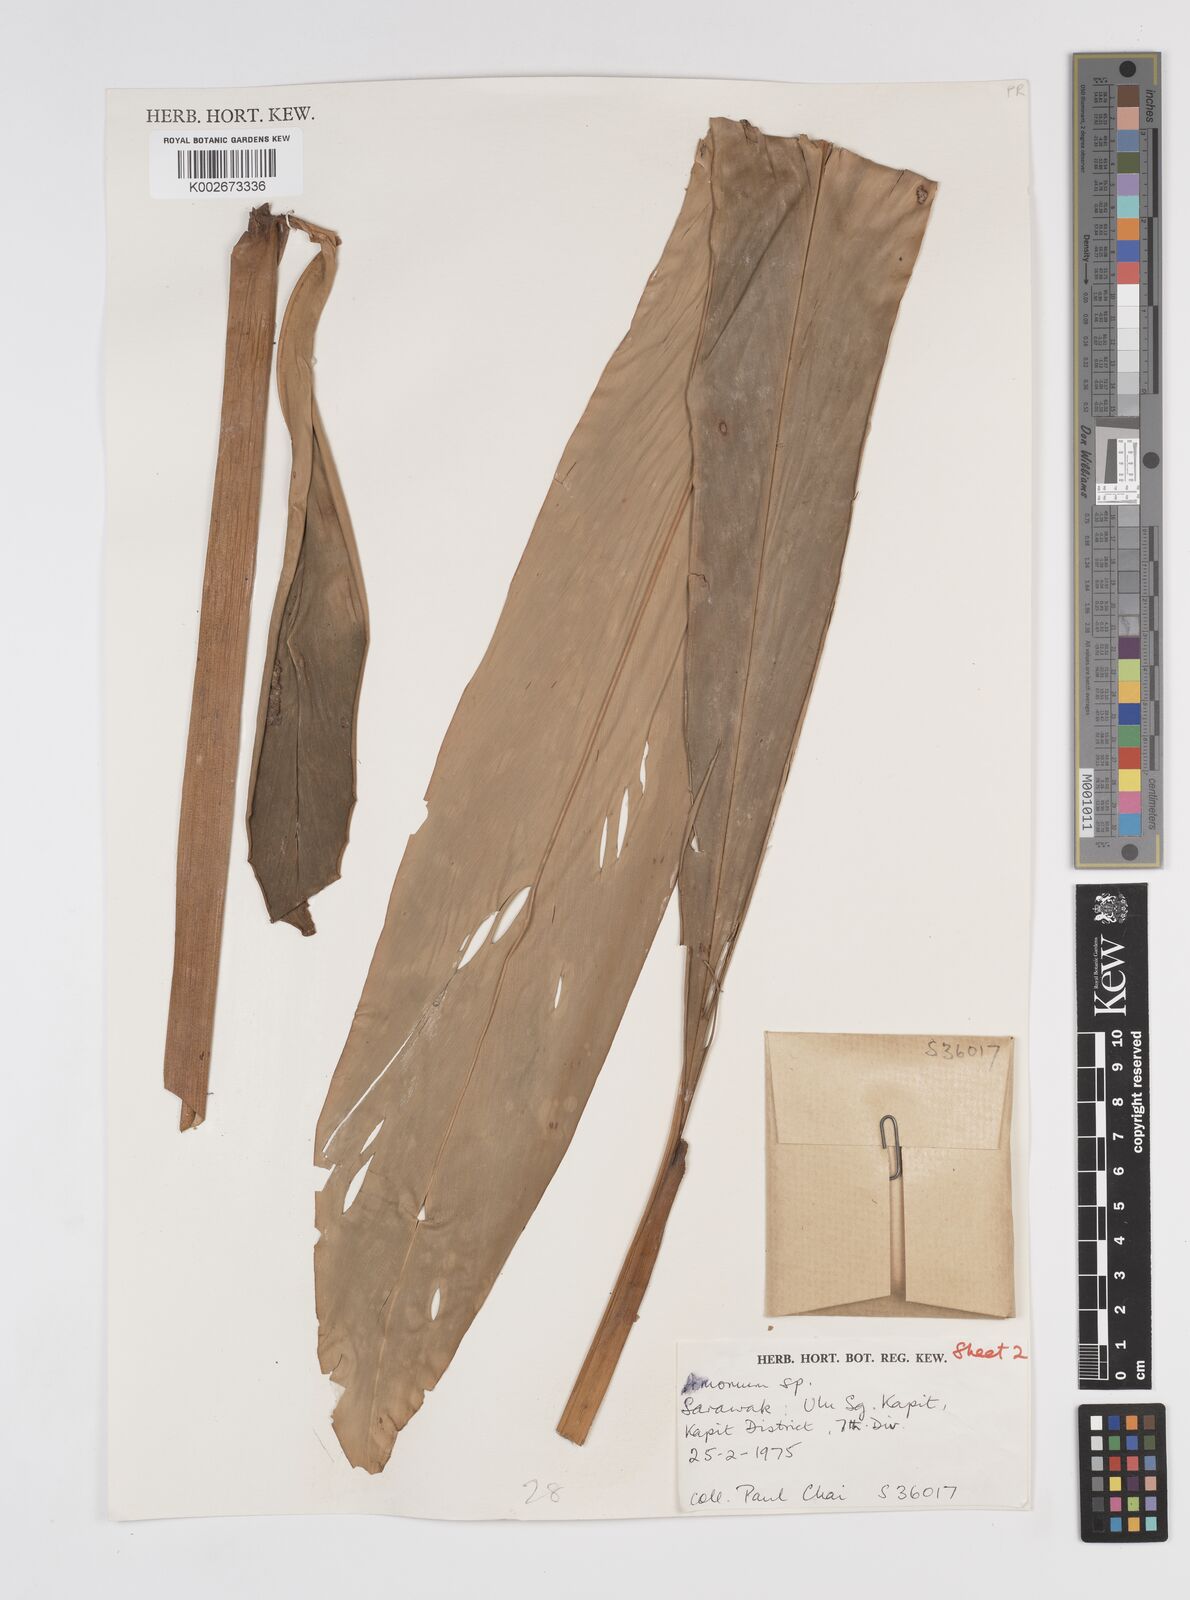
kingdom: Plantae
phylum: Tracheophyta
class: Liliopsida
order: Zingiberales
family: Zingiberaceae
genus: Sulettaria
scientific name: Sulettaria anomala
